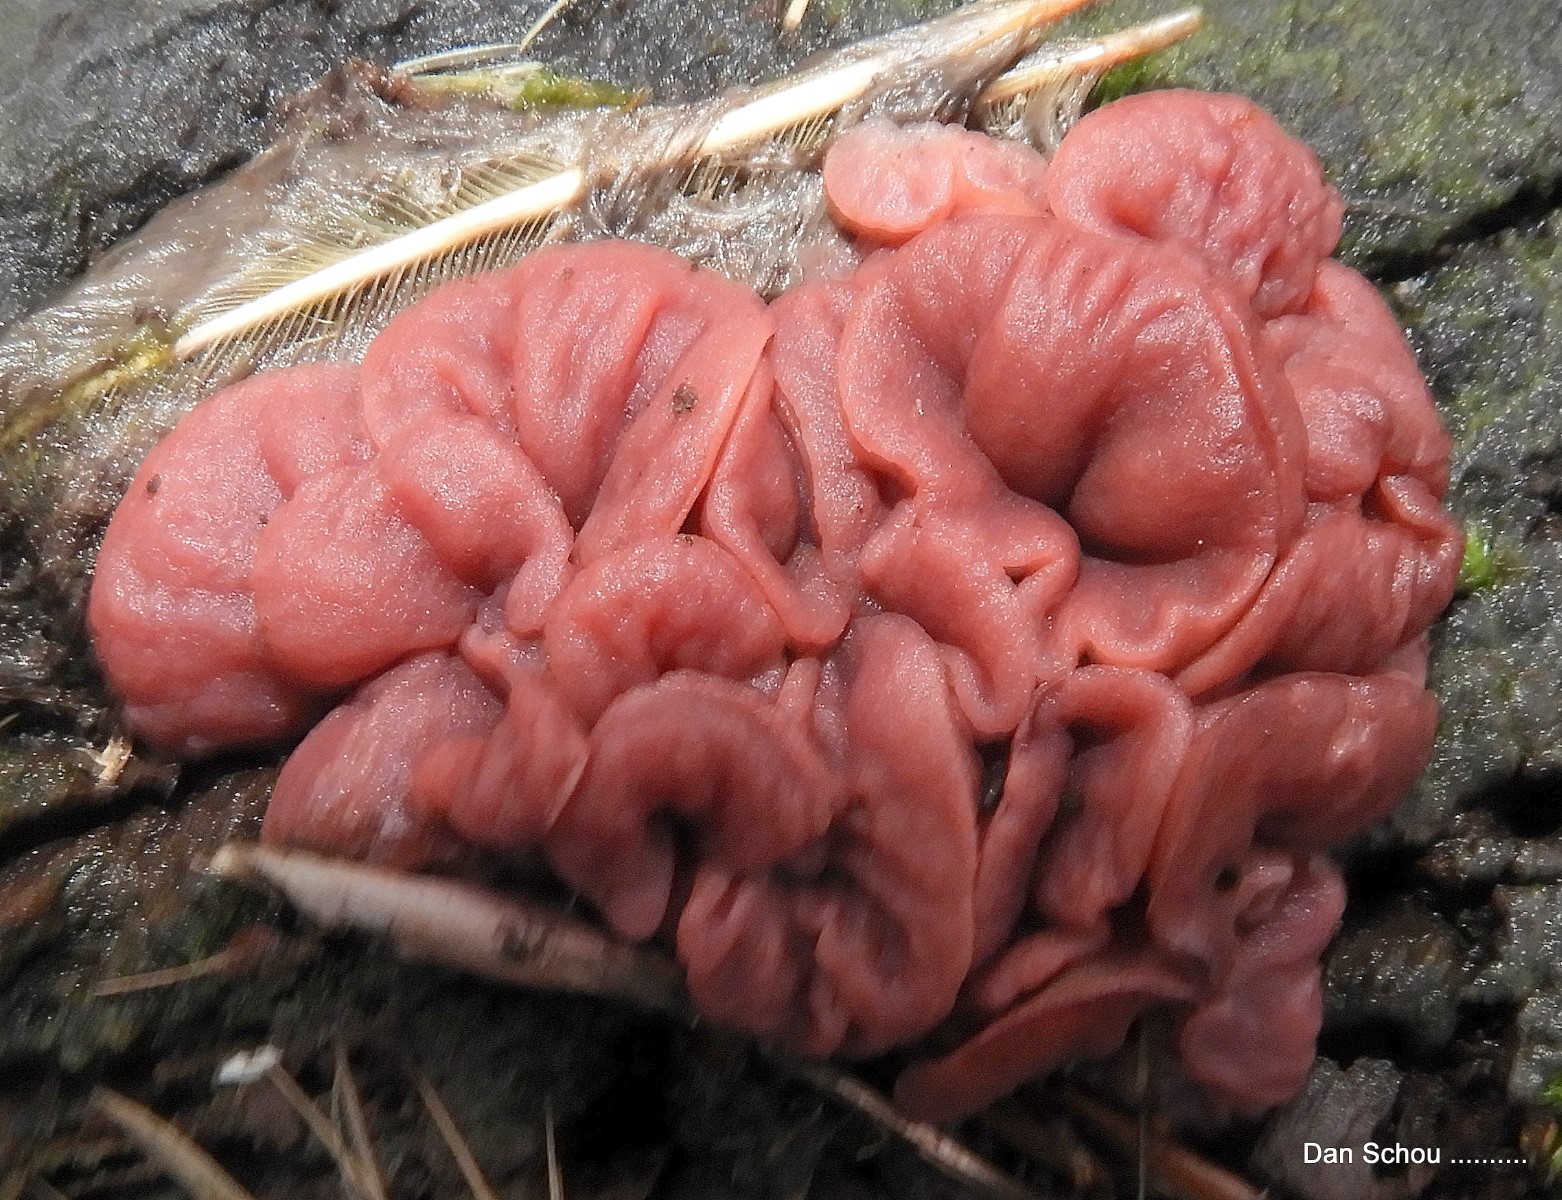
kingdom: Fungi
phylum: Ascomycota
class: Leotiomycetes
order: Helotiales
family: Gelatinodiscaceae
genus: Ascocoryne
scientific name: Ascocoryne
